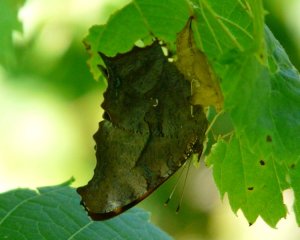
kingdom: Animalia
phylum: Arthropoda
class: Insecta
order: Lepidoptera
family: Nymphalidae
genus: Polygonia
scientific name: Polygonia interrogationis
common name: Question Mark
